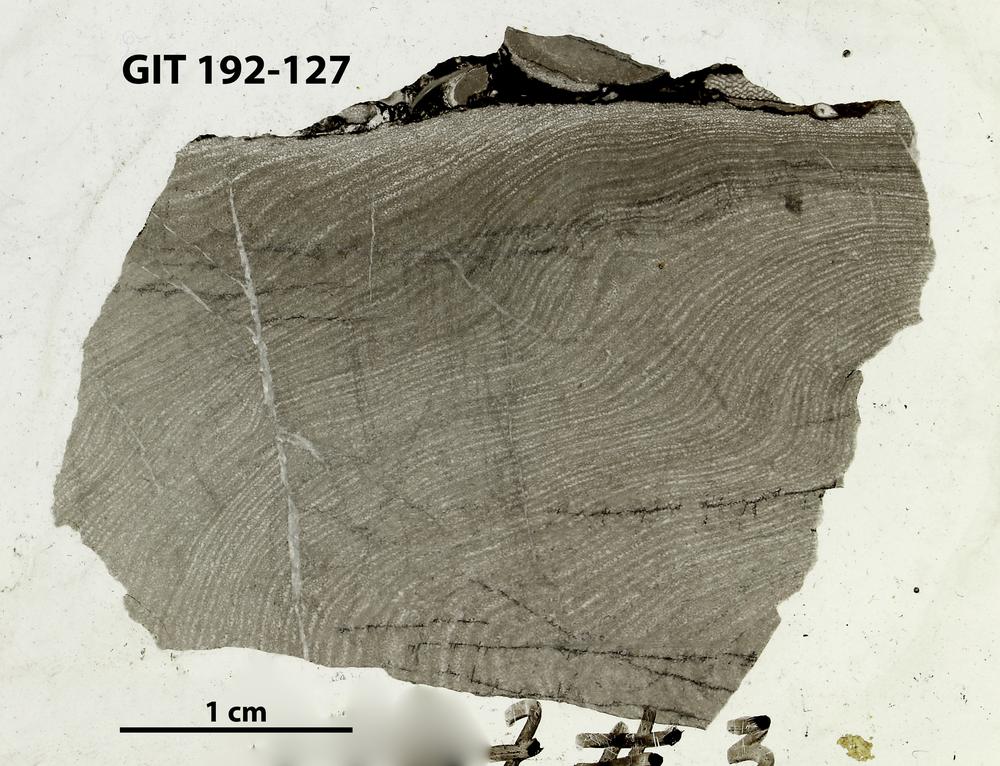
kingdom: Animalia
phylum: Porifera
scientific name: Porifera
